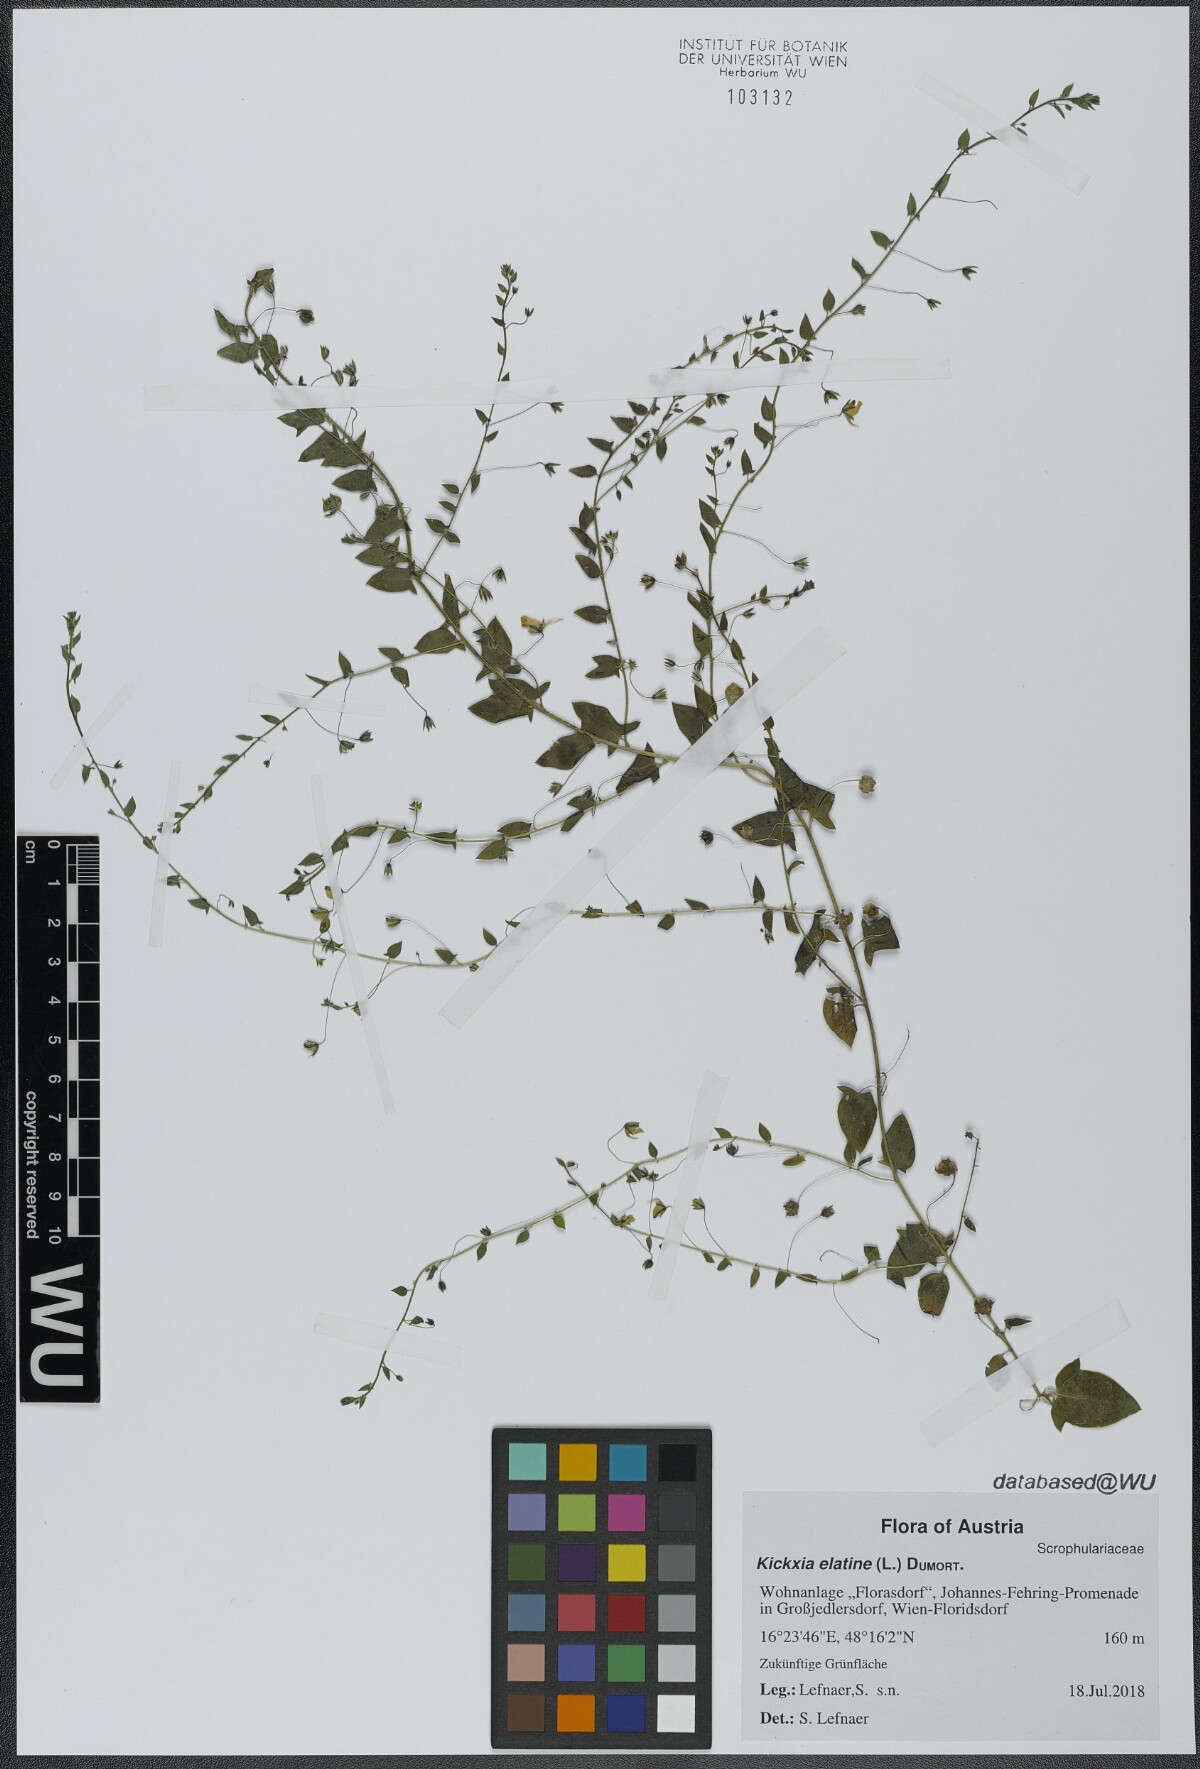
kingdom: Plantae
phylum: Tracheophyta
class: Magnoliopsida
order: Lamiales
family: Plantaginaceae
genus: Kickxia
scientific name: Kickxia elatine
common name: Sharp-leaved fluellen
